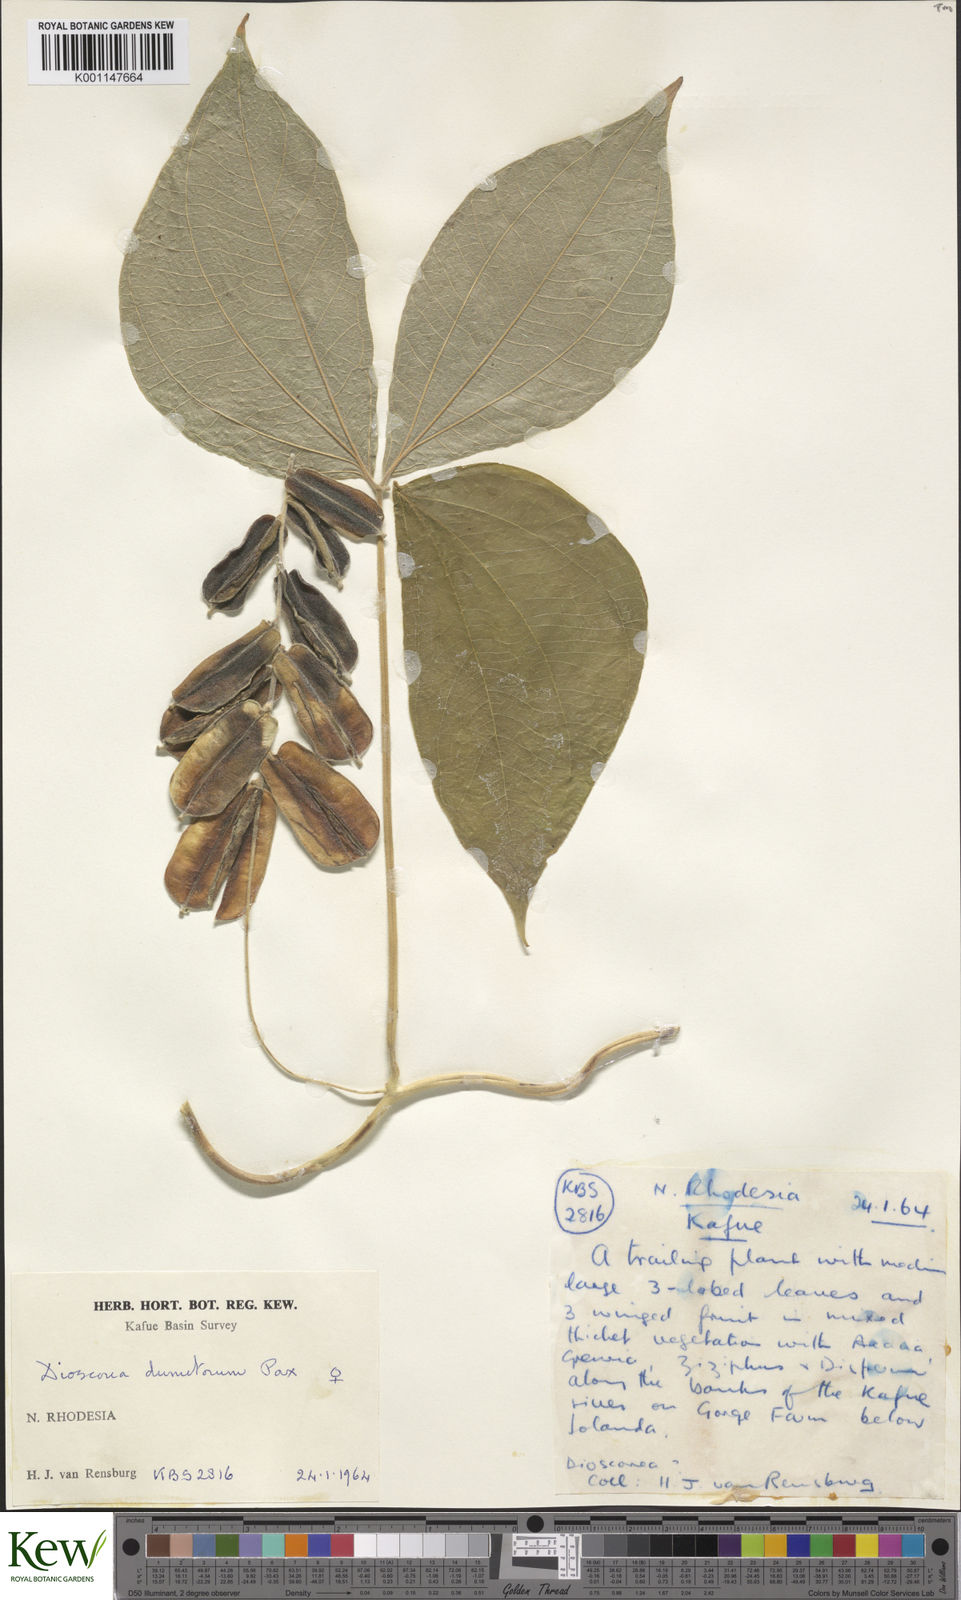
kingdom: Plantae
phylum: Tracheophyta
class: Liliopsida
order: Dioscoreales
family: Dioscoreaceae
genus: Dioscorea
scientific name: Dioscorea dumetorum
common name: African bitter yam
